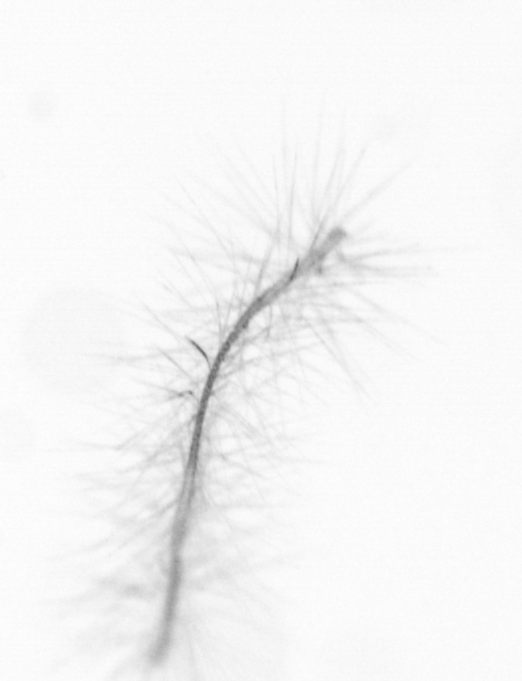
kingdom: Chromista
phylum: Ochrophyta
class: Bacillariophyceae
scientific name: Bacillariophyceae
